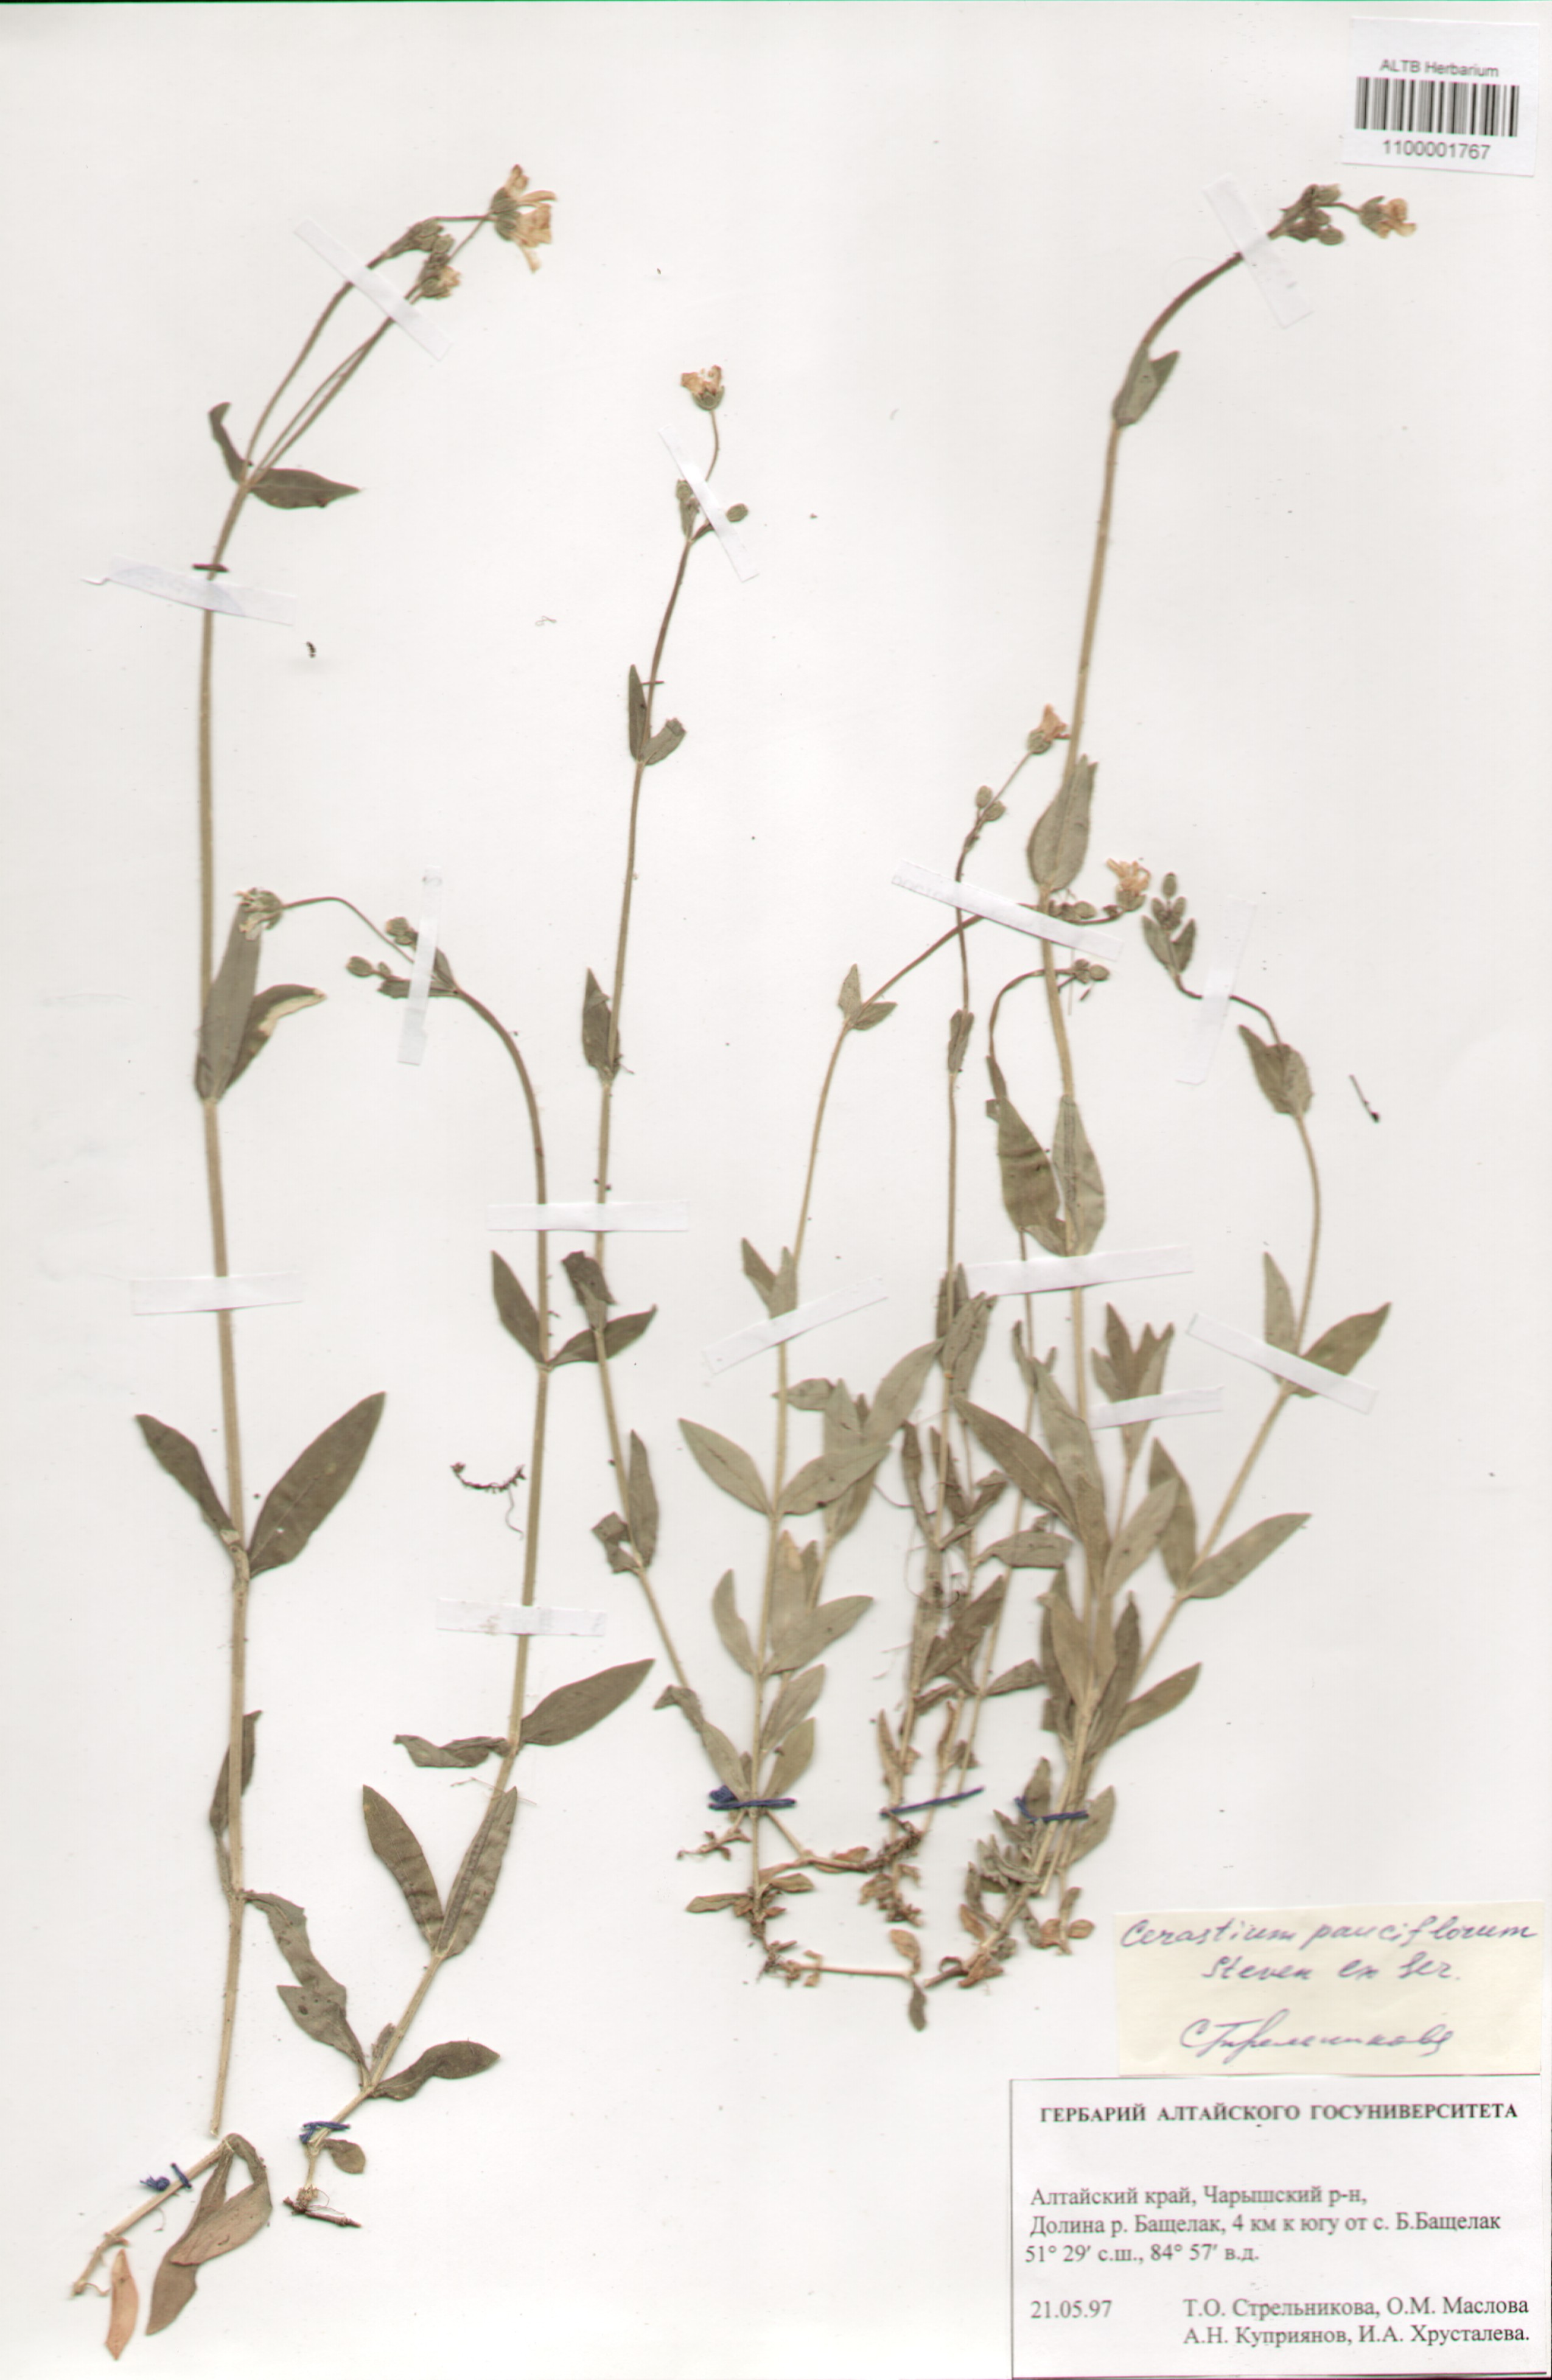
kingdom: Plantae
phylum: Tracheophyta
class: Magnoliopsida
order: Caryophyllales
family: Caryophyllaceae
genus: Cerastium
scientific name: Cerastium pauciflorum
